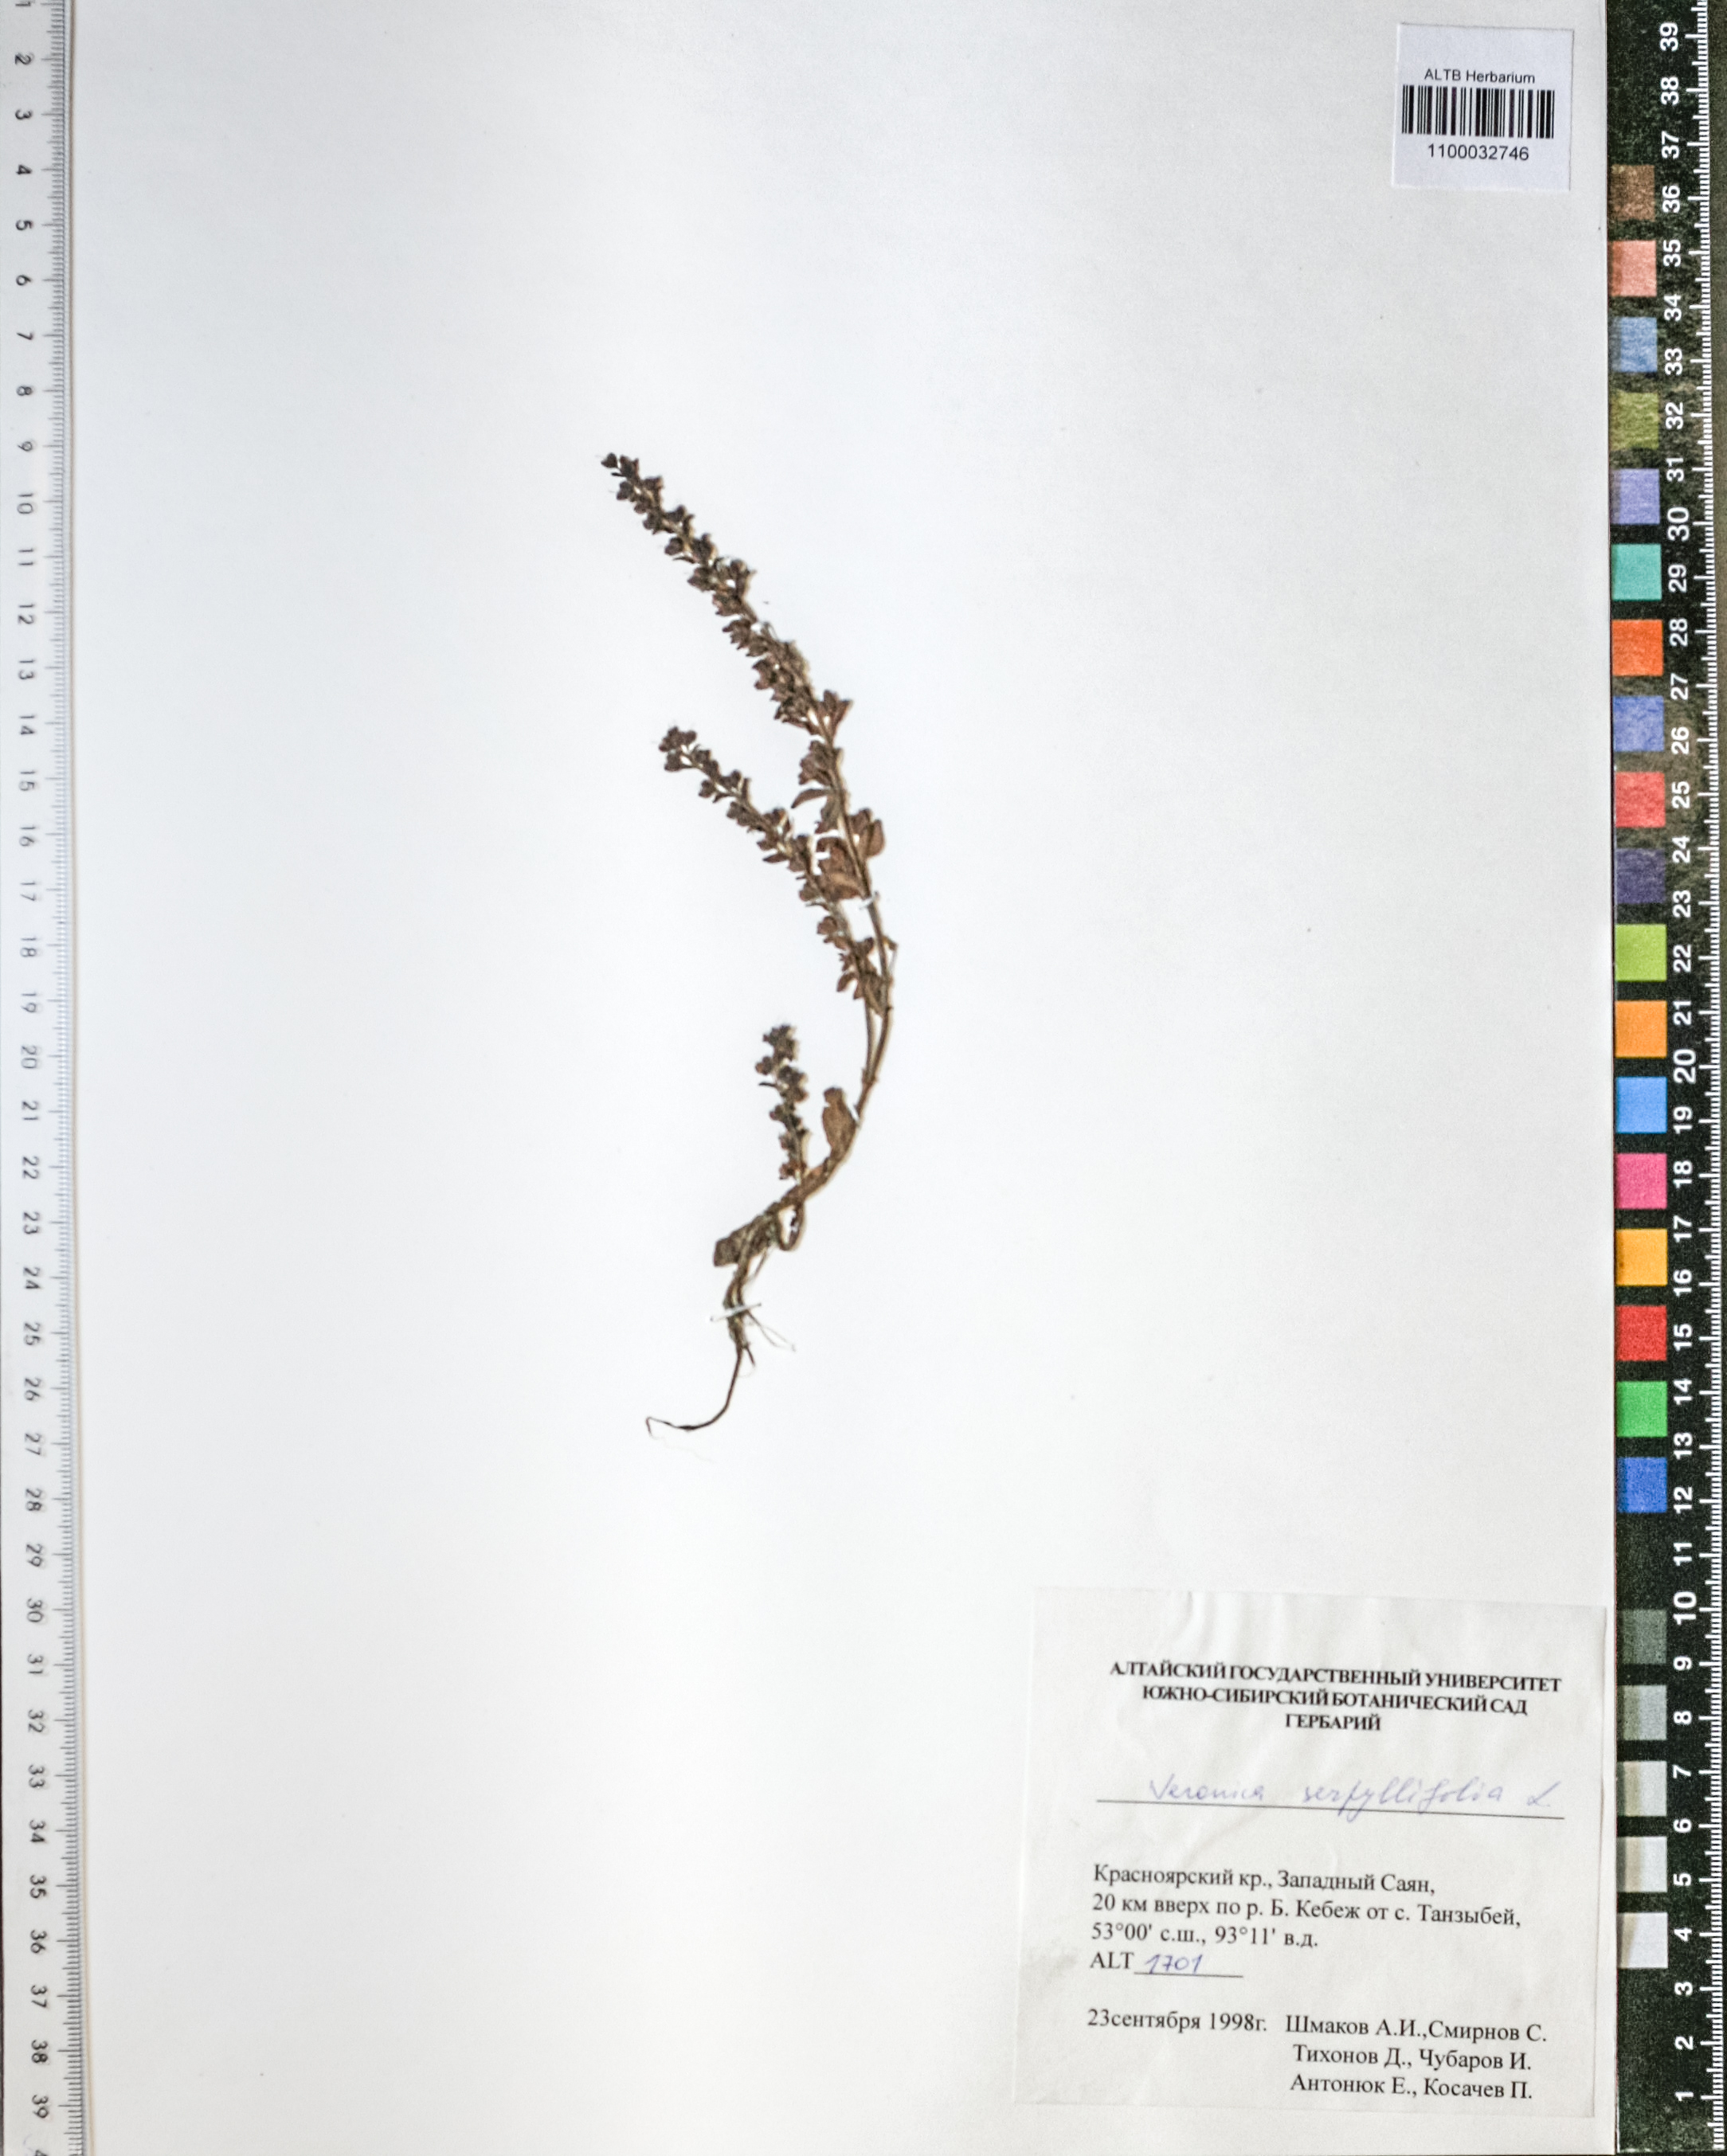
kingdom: Plantae
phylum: Tracheophyta
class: Magnoliopsida
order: Lamiales
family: Plantaginaceae
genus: Veronica
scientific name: Veronica serpyllifolia
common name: Thyme-leaved speedwell
